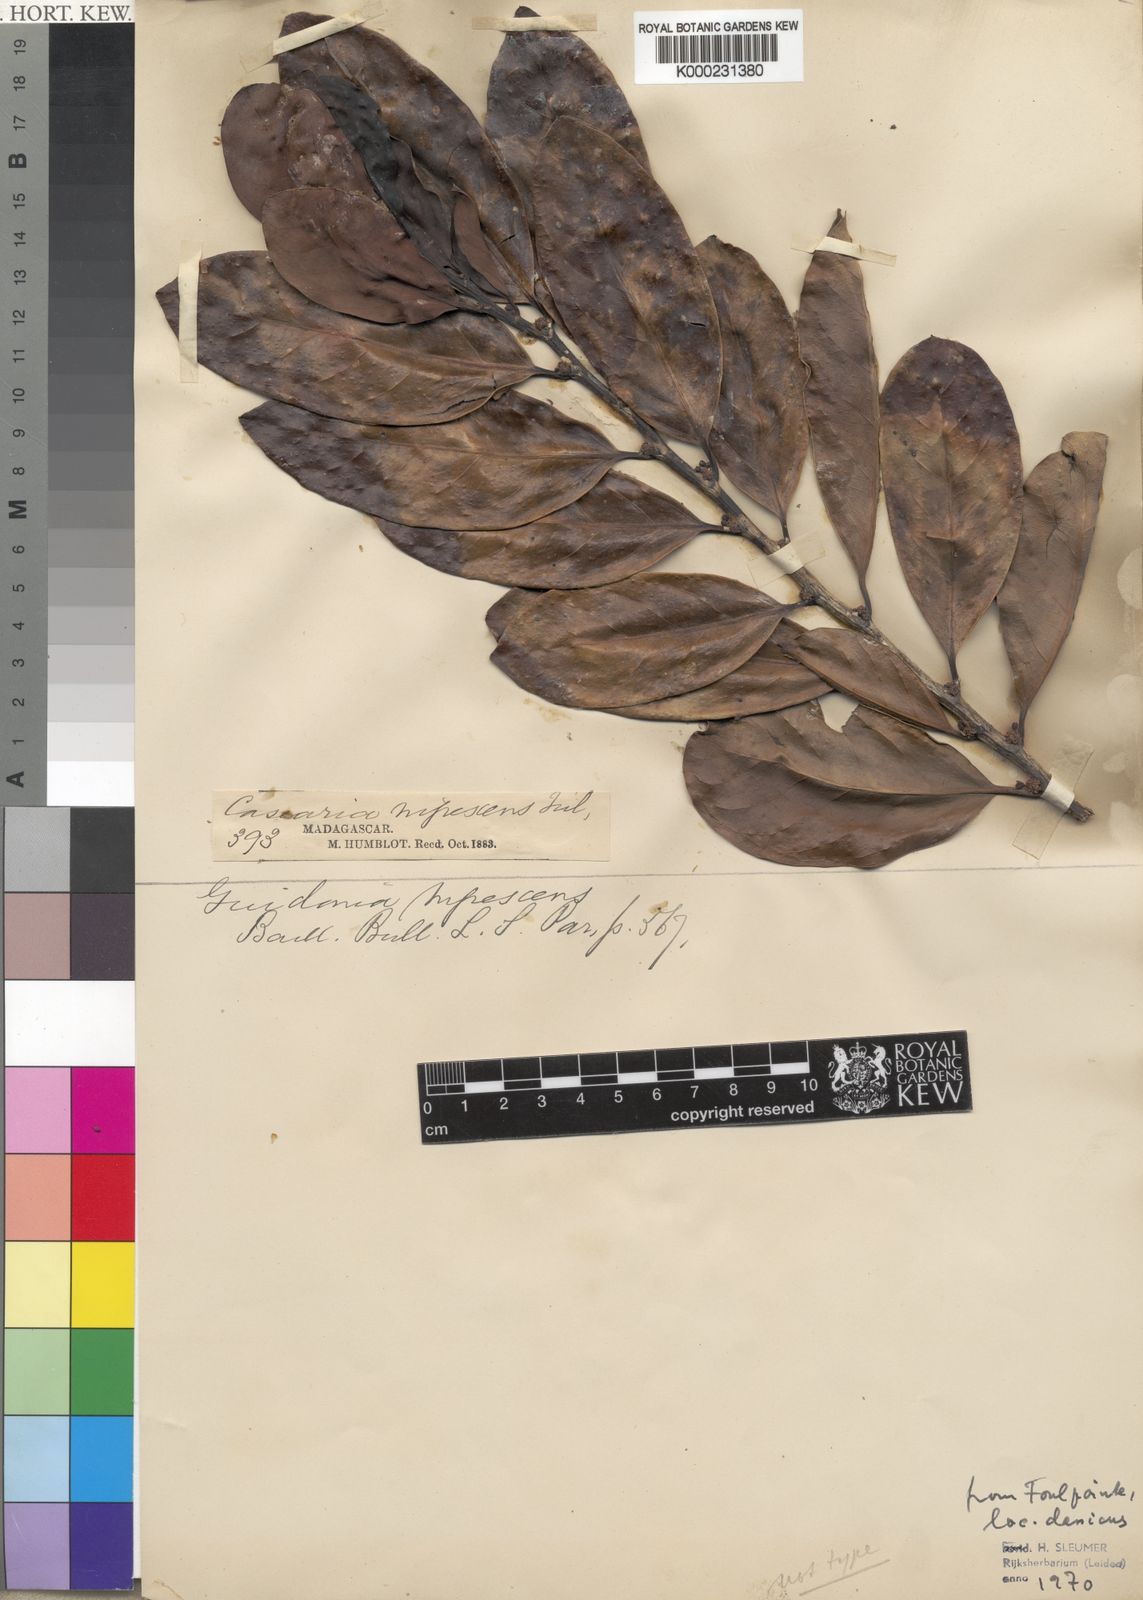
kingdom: Plantae
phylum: Tracheophyta
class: Magnoliopsida
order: Malpighiales
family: Salicaceae
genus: Casearia
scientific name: Casearia nigrescens
